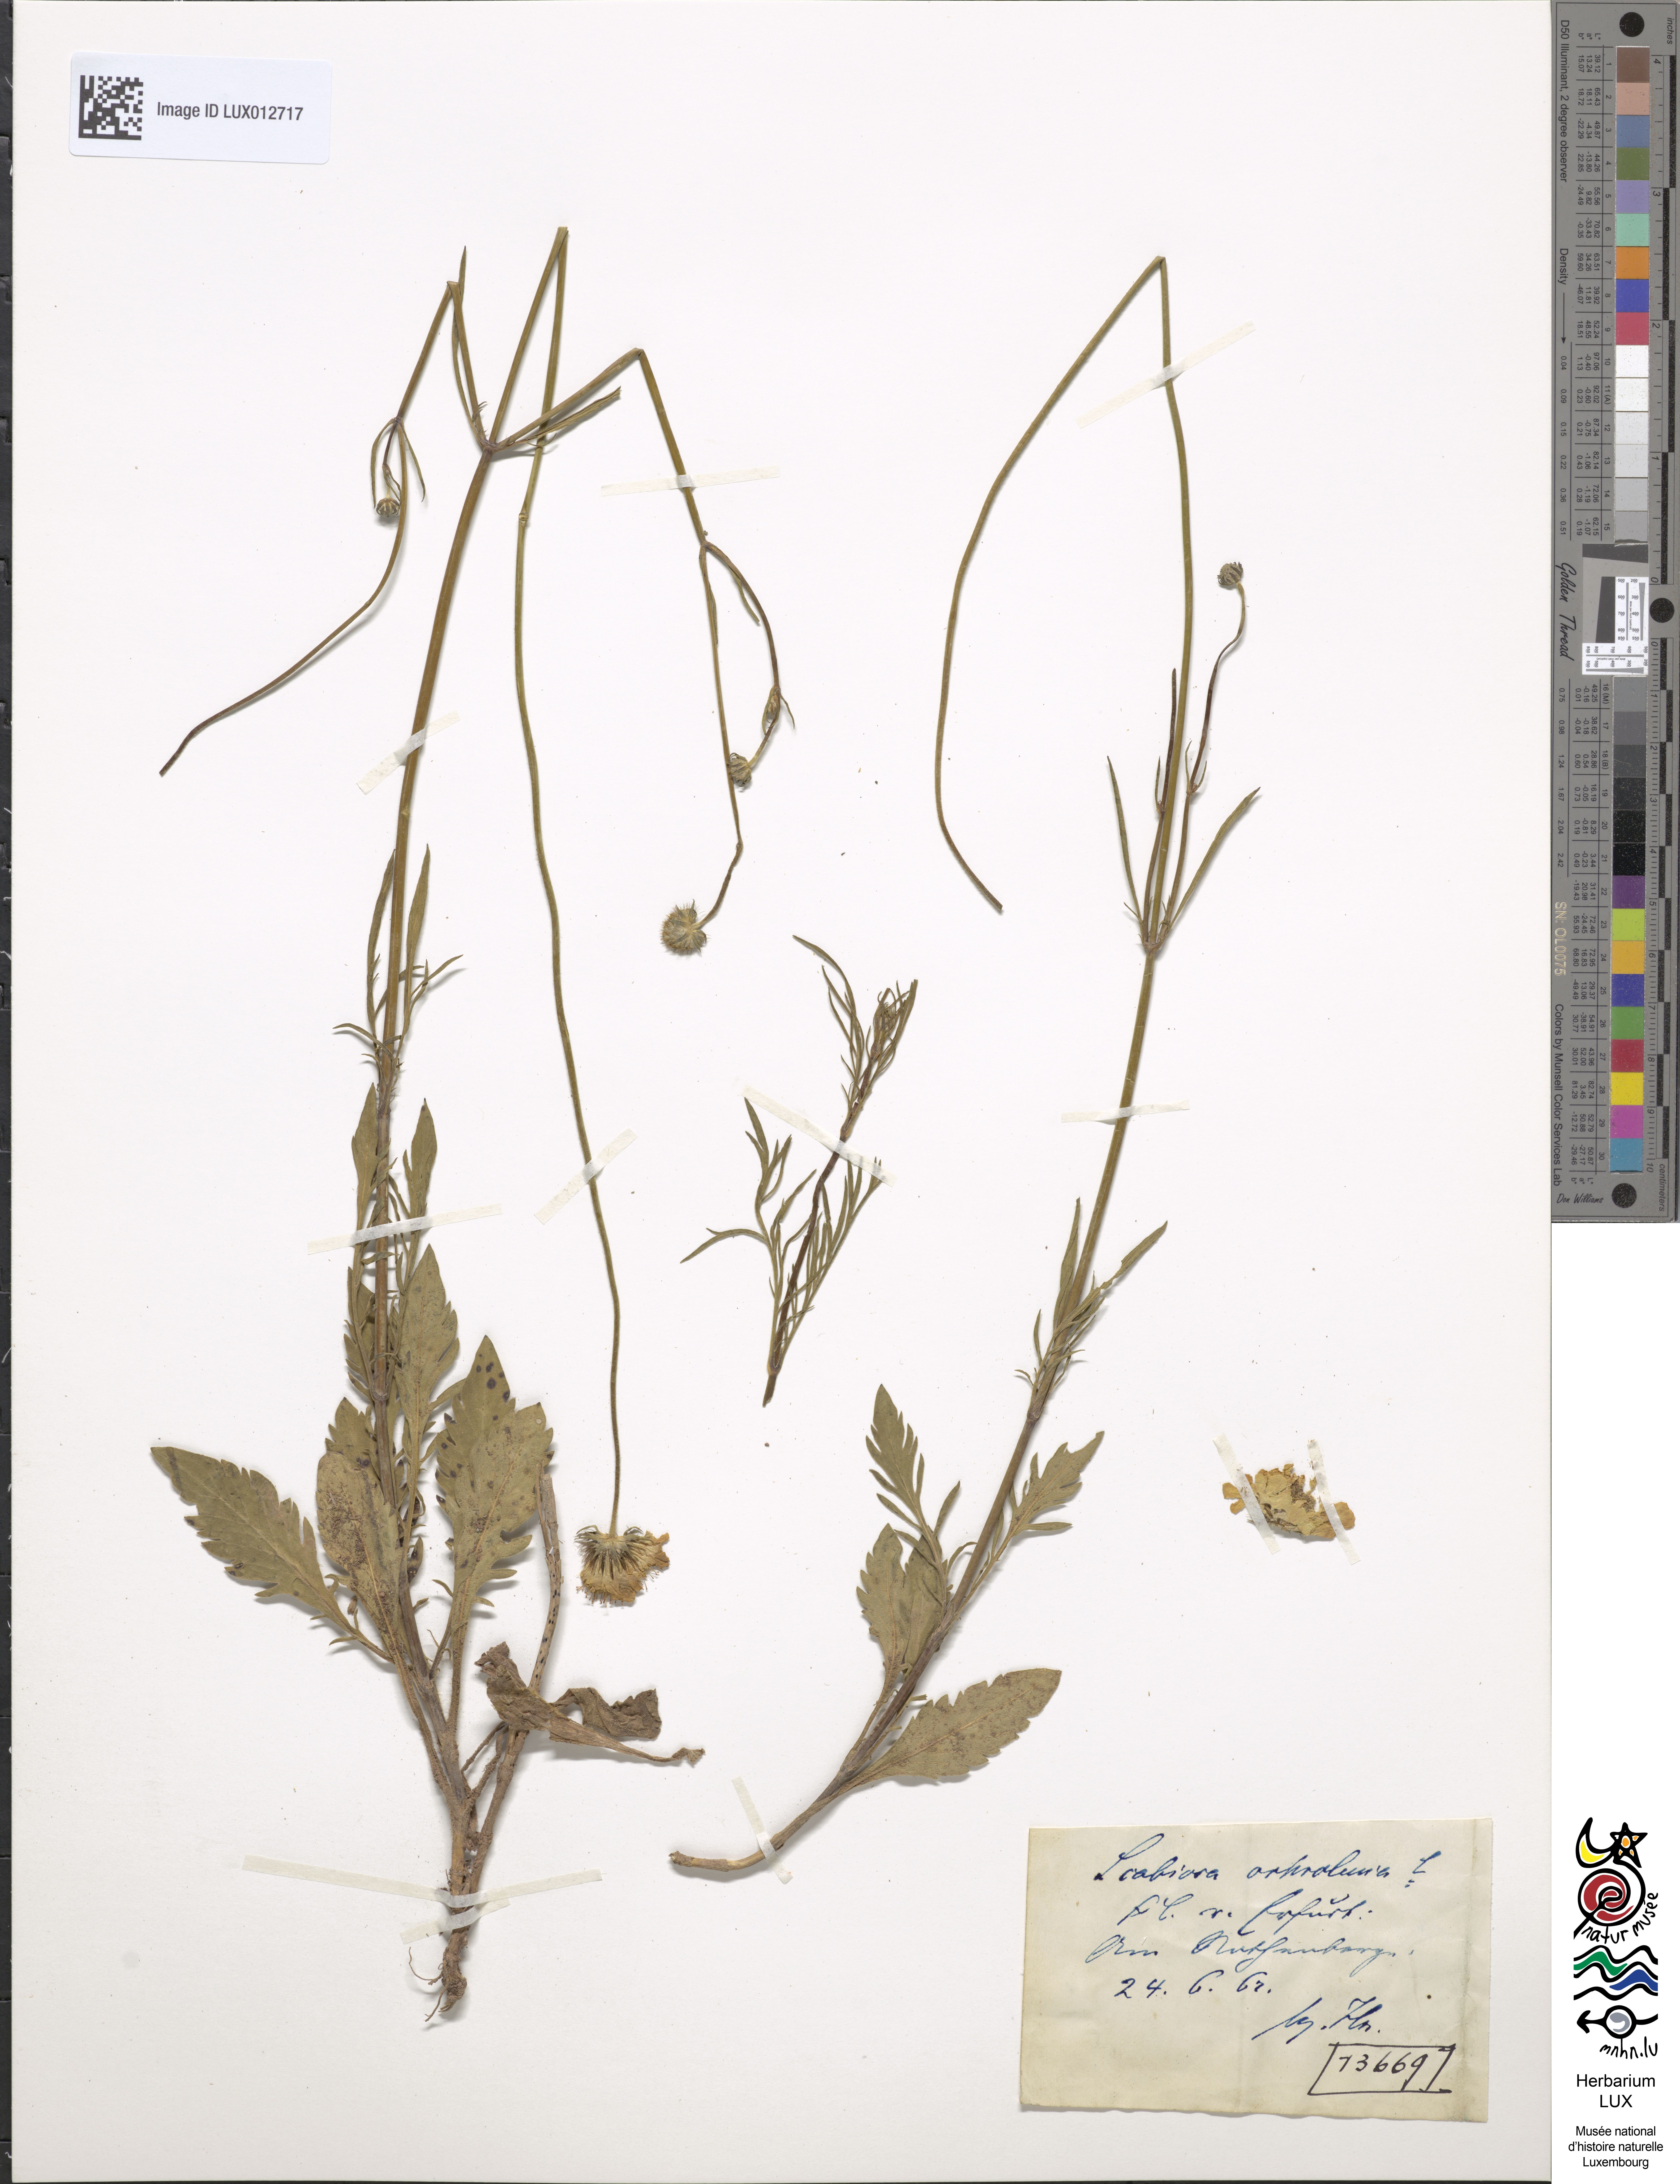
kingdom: Plantae
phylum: Tracheophyta
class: Magnoliopsida
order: Dipsacales
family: Caprifoliaceae
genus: Scabiosa
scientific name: Scabiosa ochroleuca
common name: Cream pincushions
